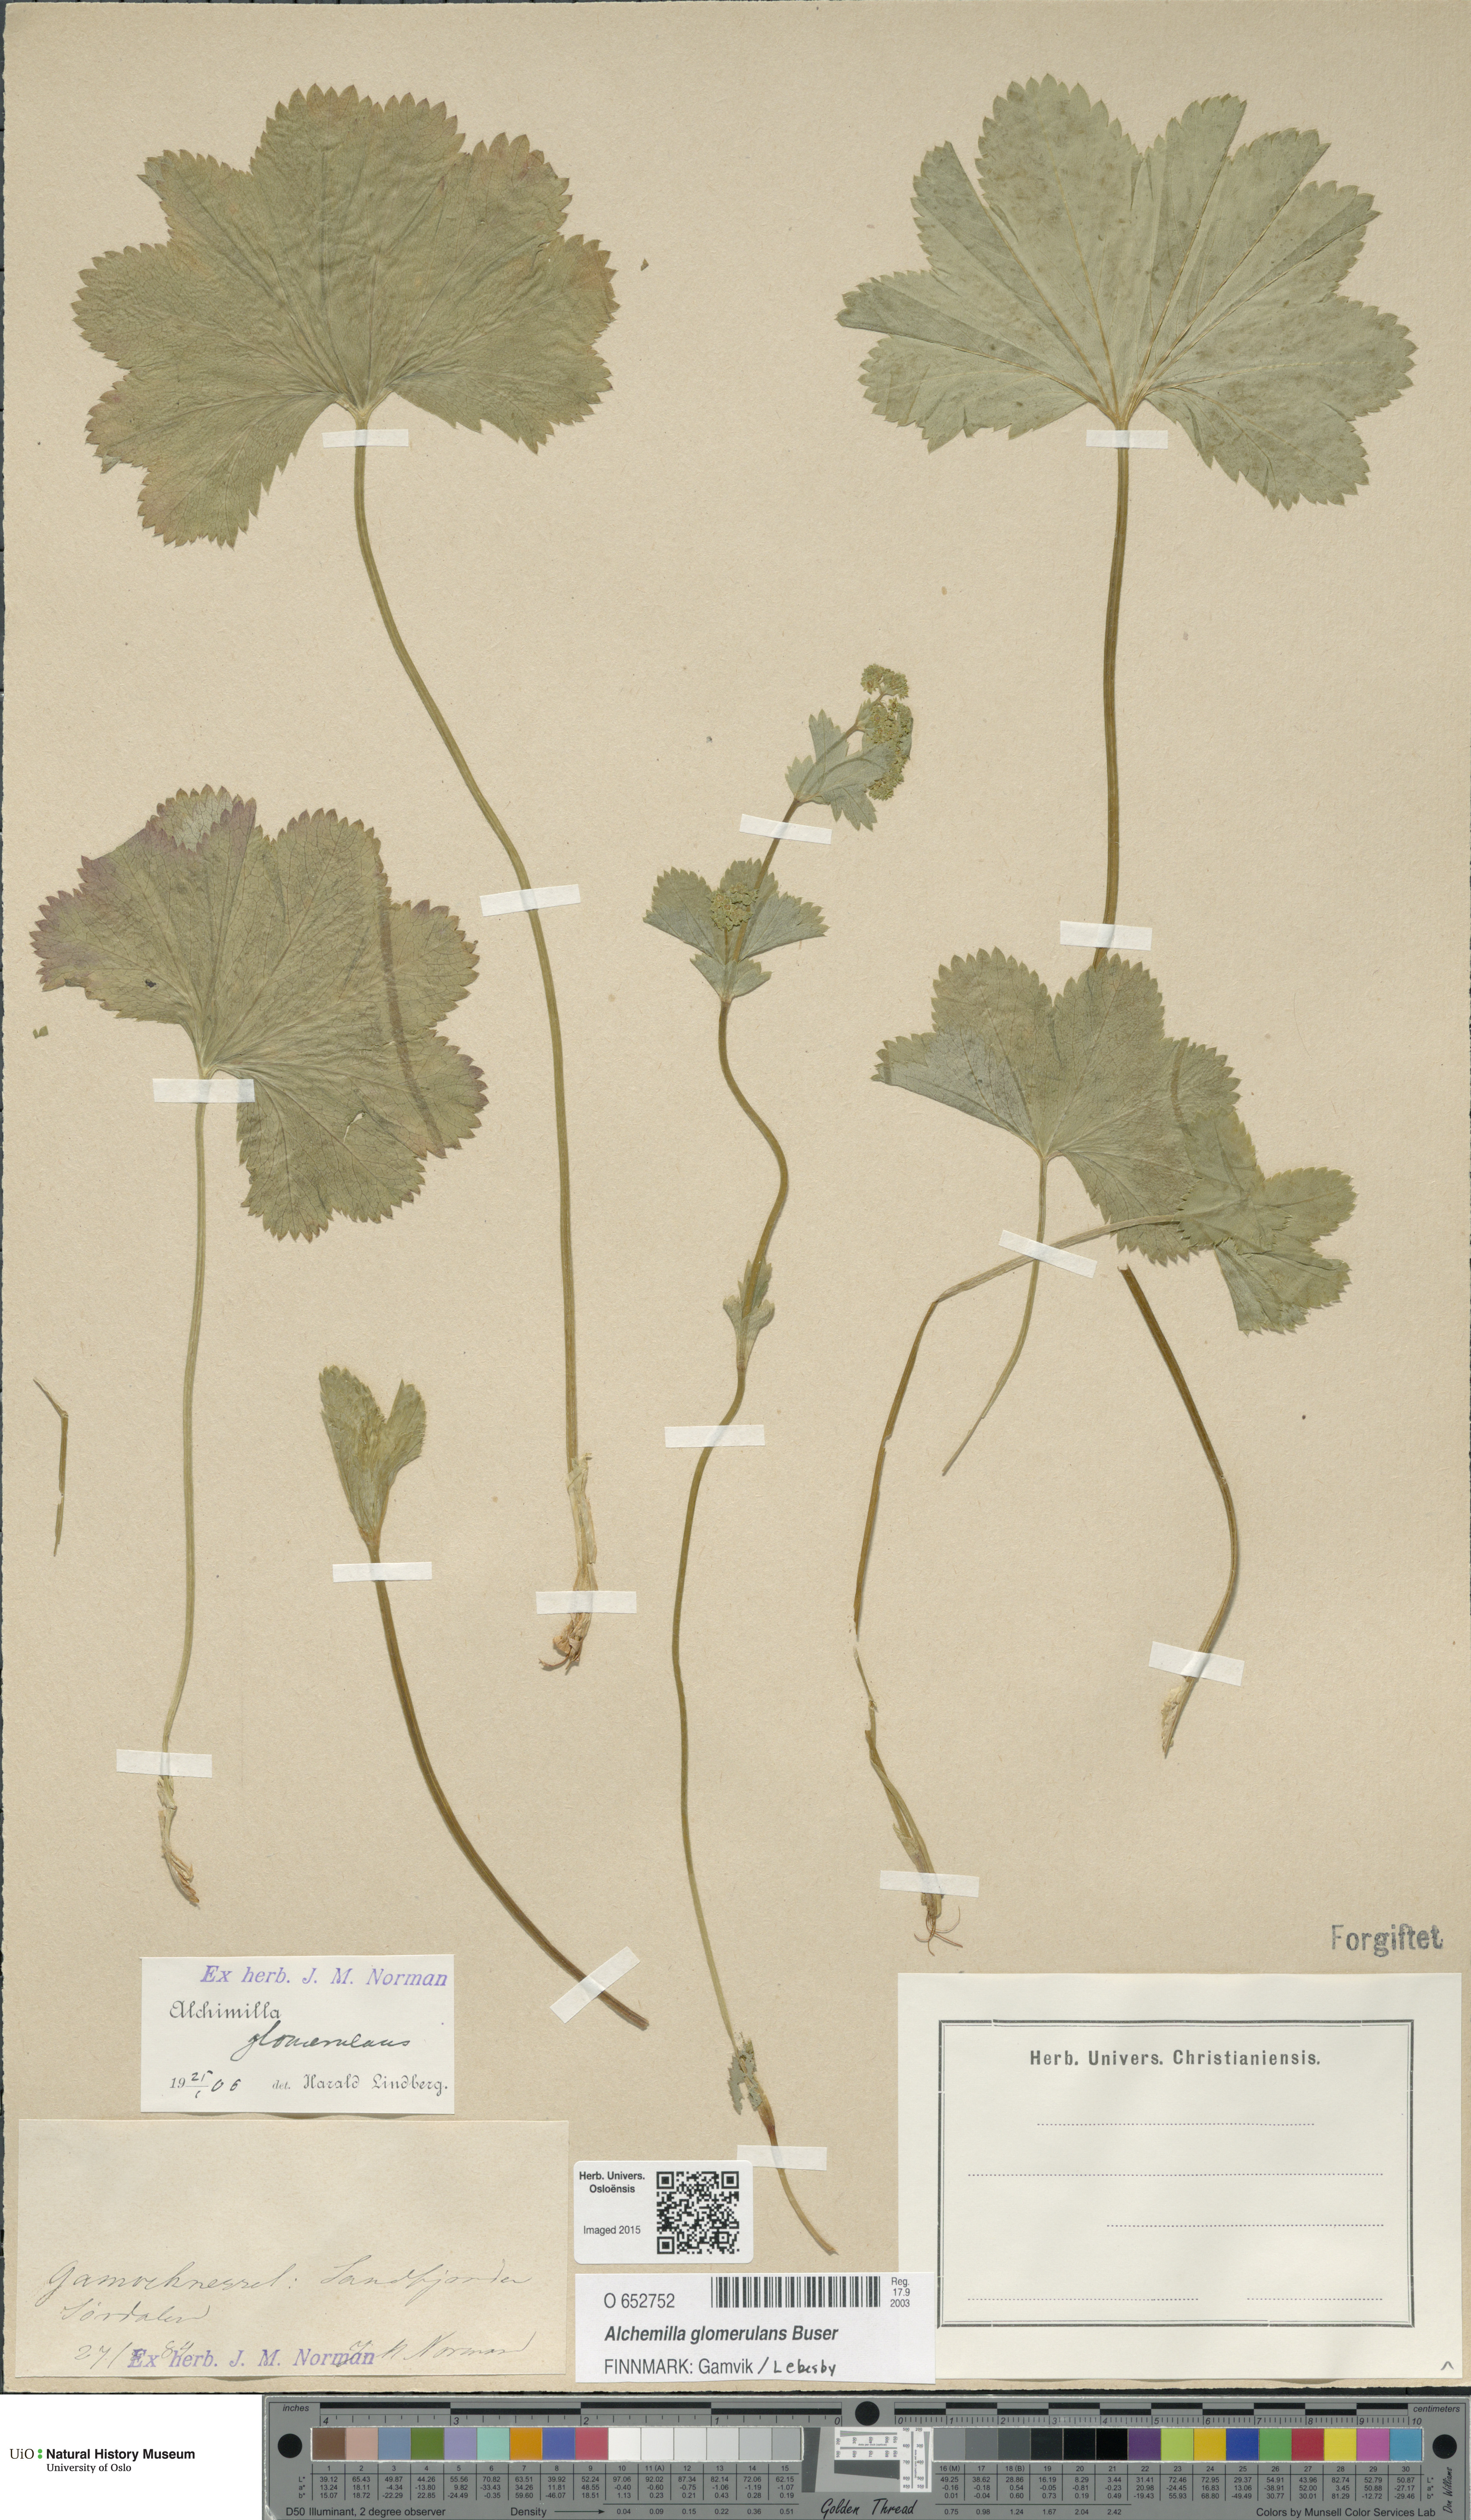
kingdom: Plantae
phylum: Tracheophyta
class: Magnoliopsida
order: Rosales
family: Rosaceae
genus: Alchemilla
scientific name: Alchemilla glomerulans
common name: Clustered lady's mantle
